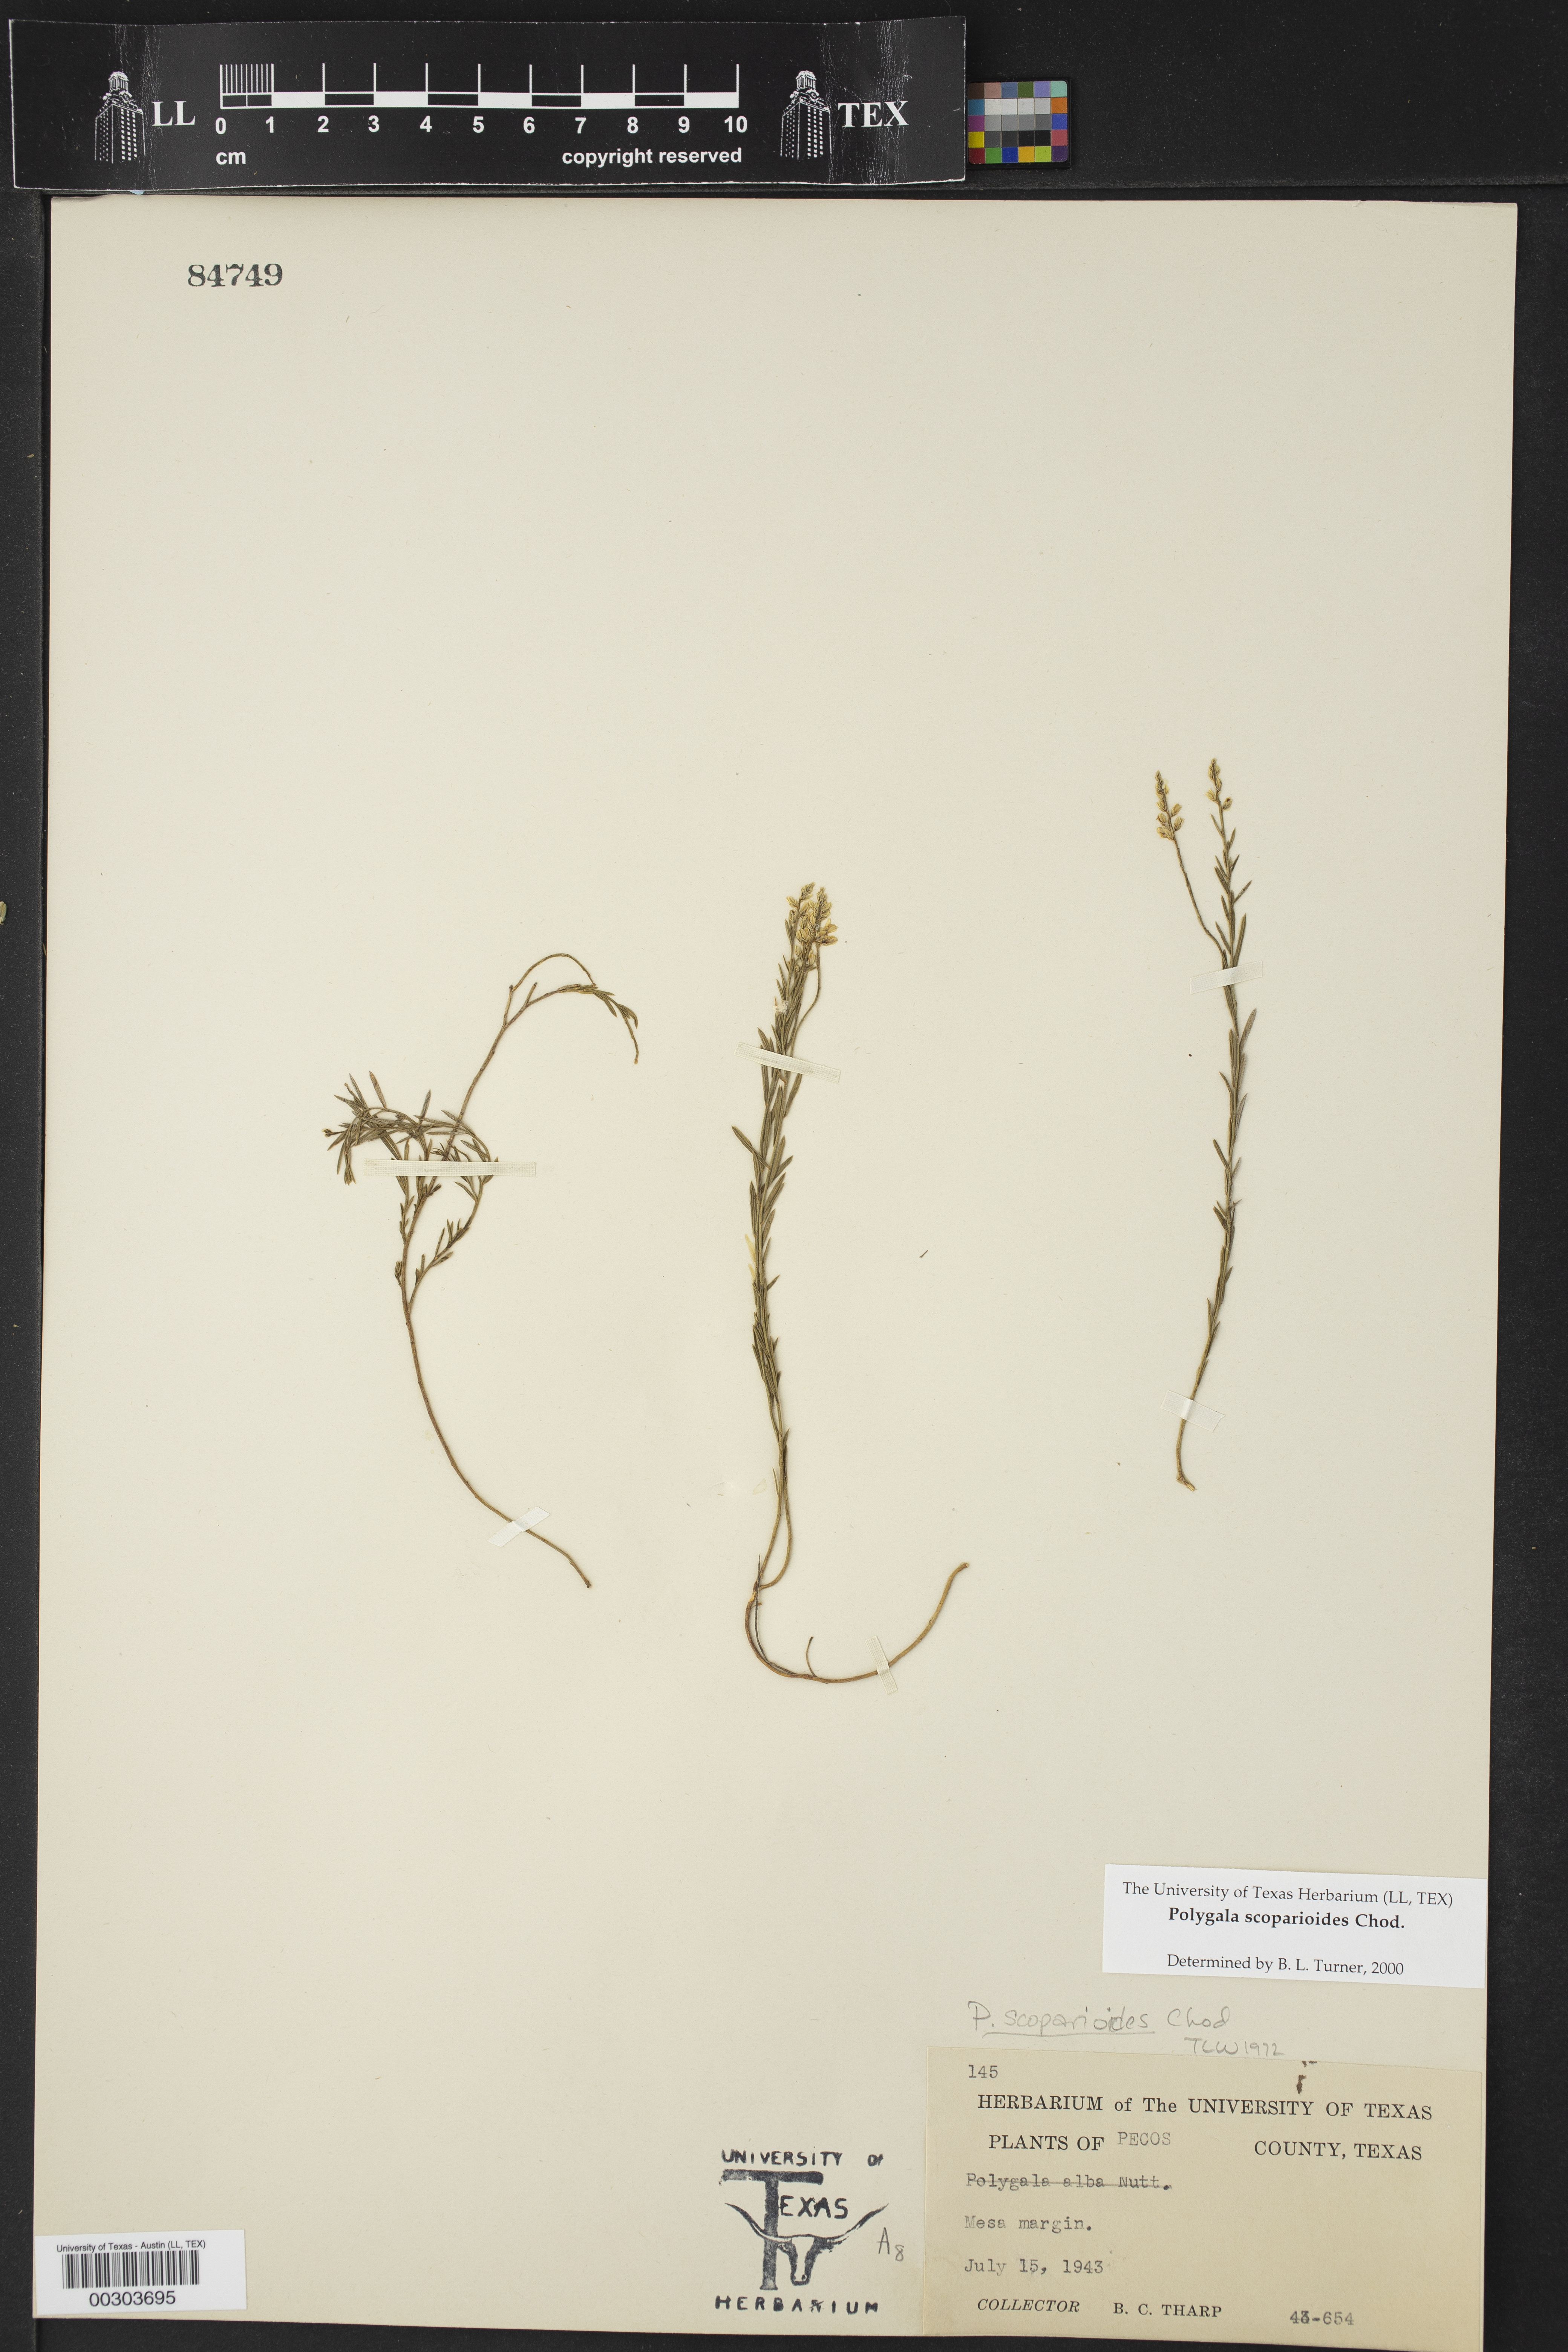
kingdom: Plantae
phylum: Tracheophyta
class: Magnoliopsida
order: Fabales
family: Polygalaceae
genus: Polygala
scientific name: Polygala scoparioides
